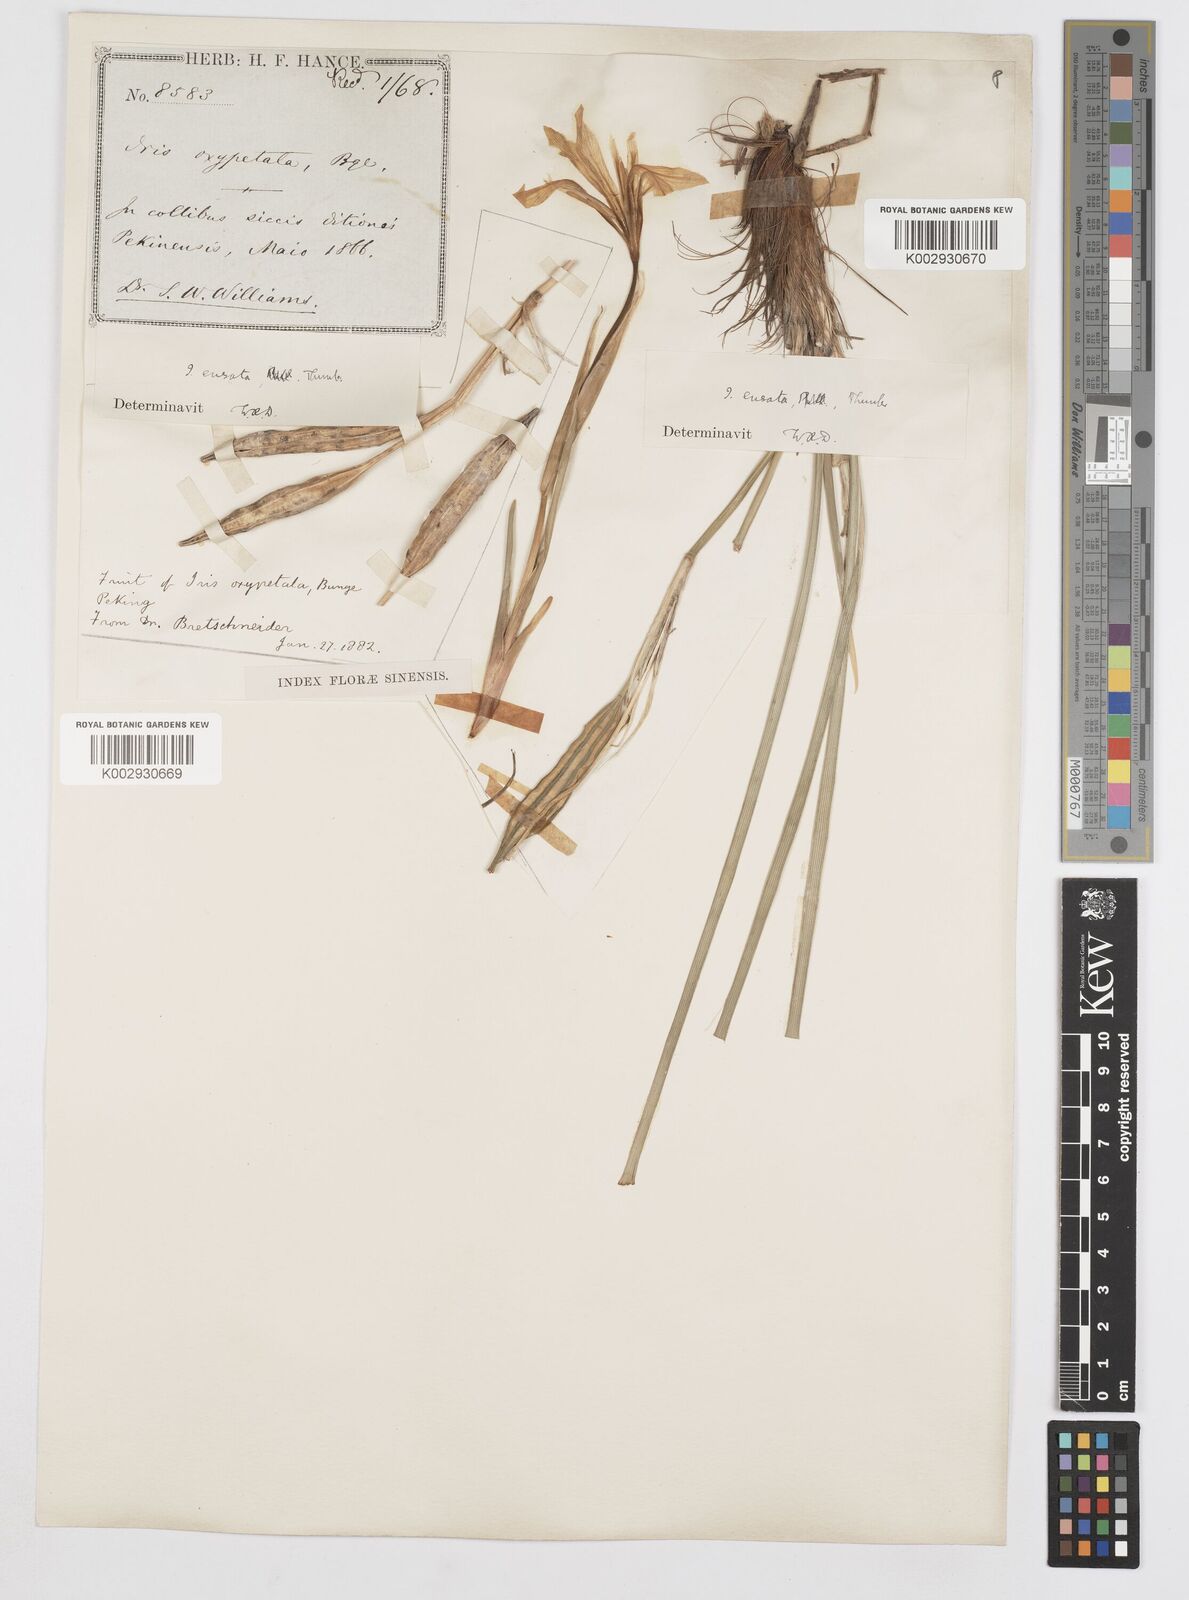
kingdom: Plantae
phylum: Tracheophyta
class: Liliopsida
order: Asparagales
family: Iridaceae
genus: Iris
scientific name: Iris ensata
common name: Beaked iris
